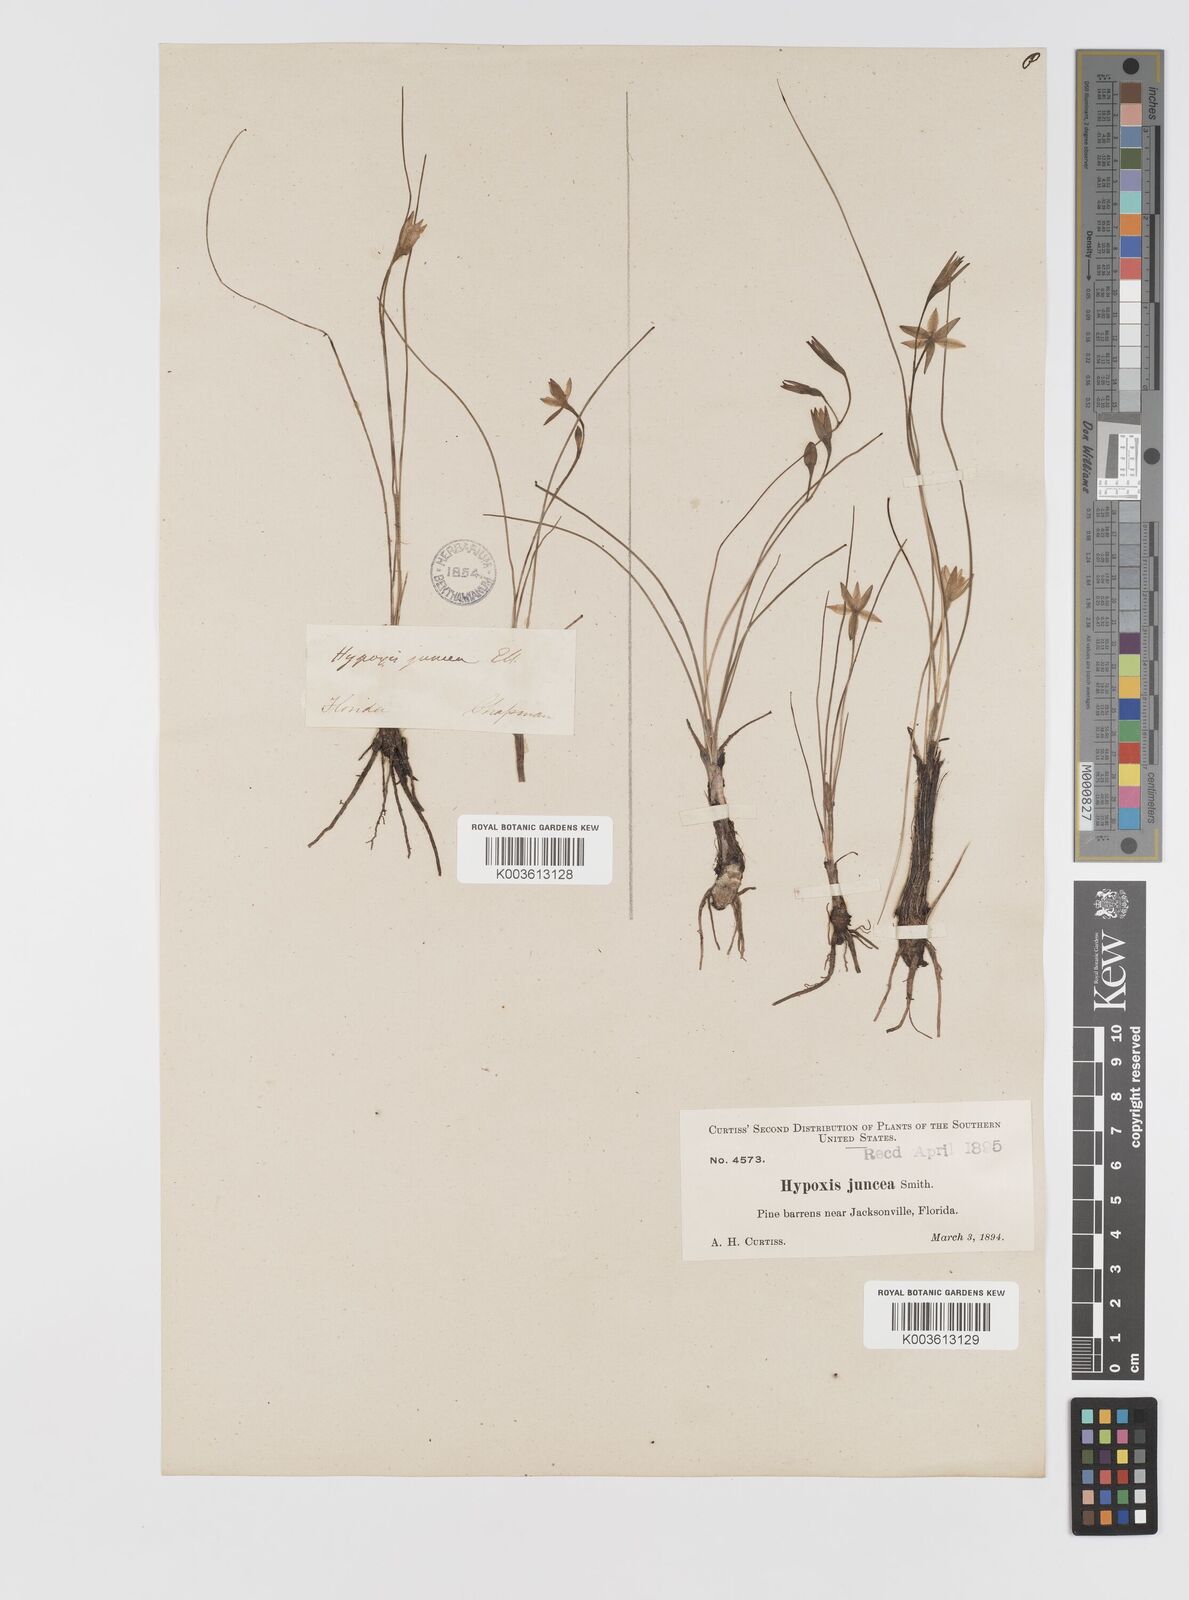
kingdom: Plantae
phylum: Tracheophyta
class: Liliopsida
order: Asparagales
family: Hypoxidaceae
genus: Hypoxis
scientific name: Hypoxis juncea
